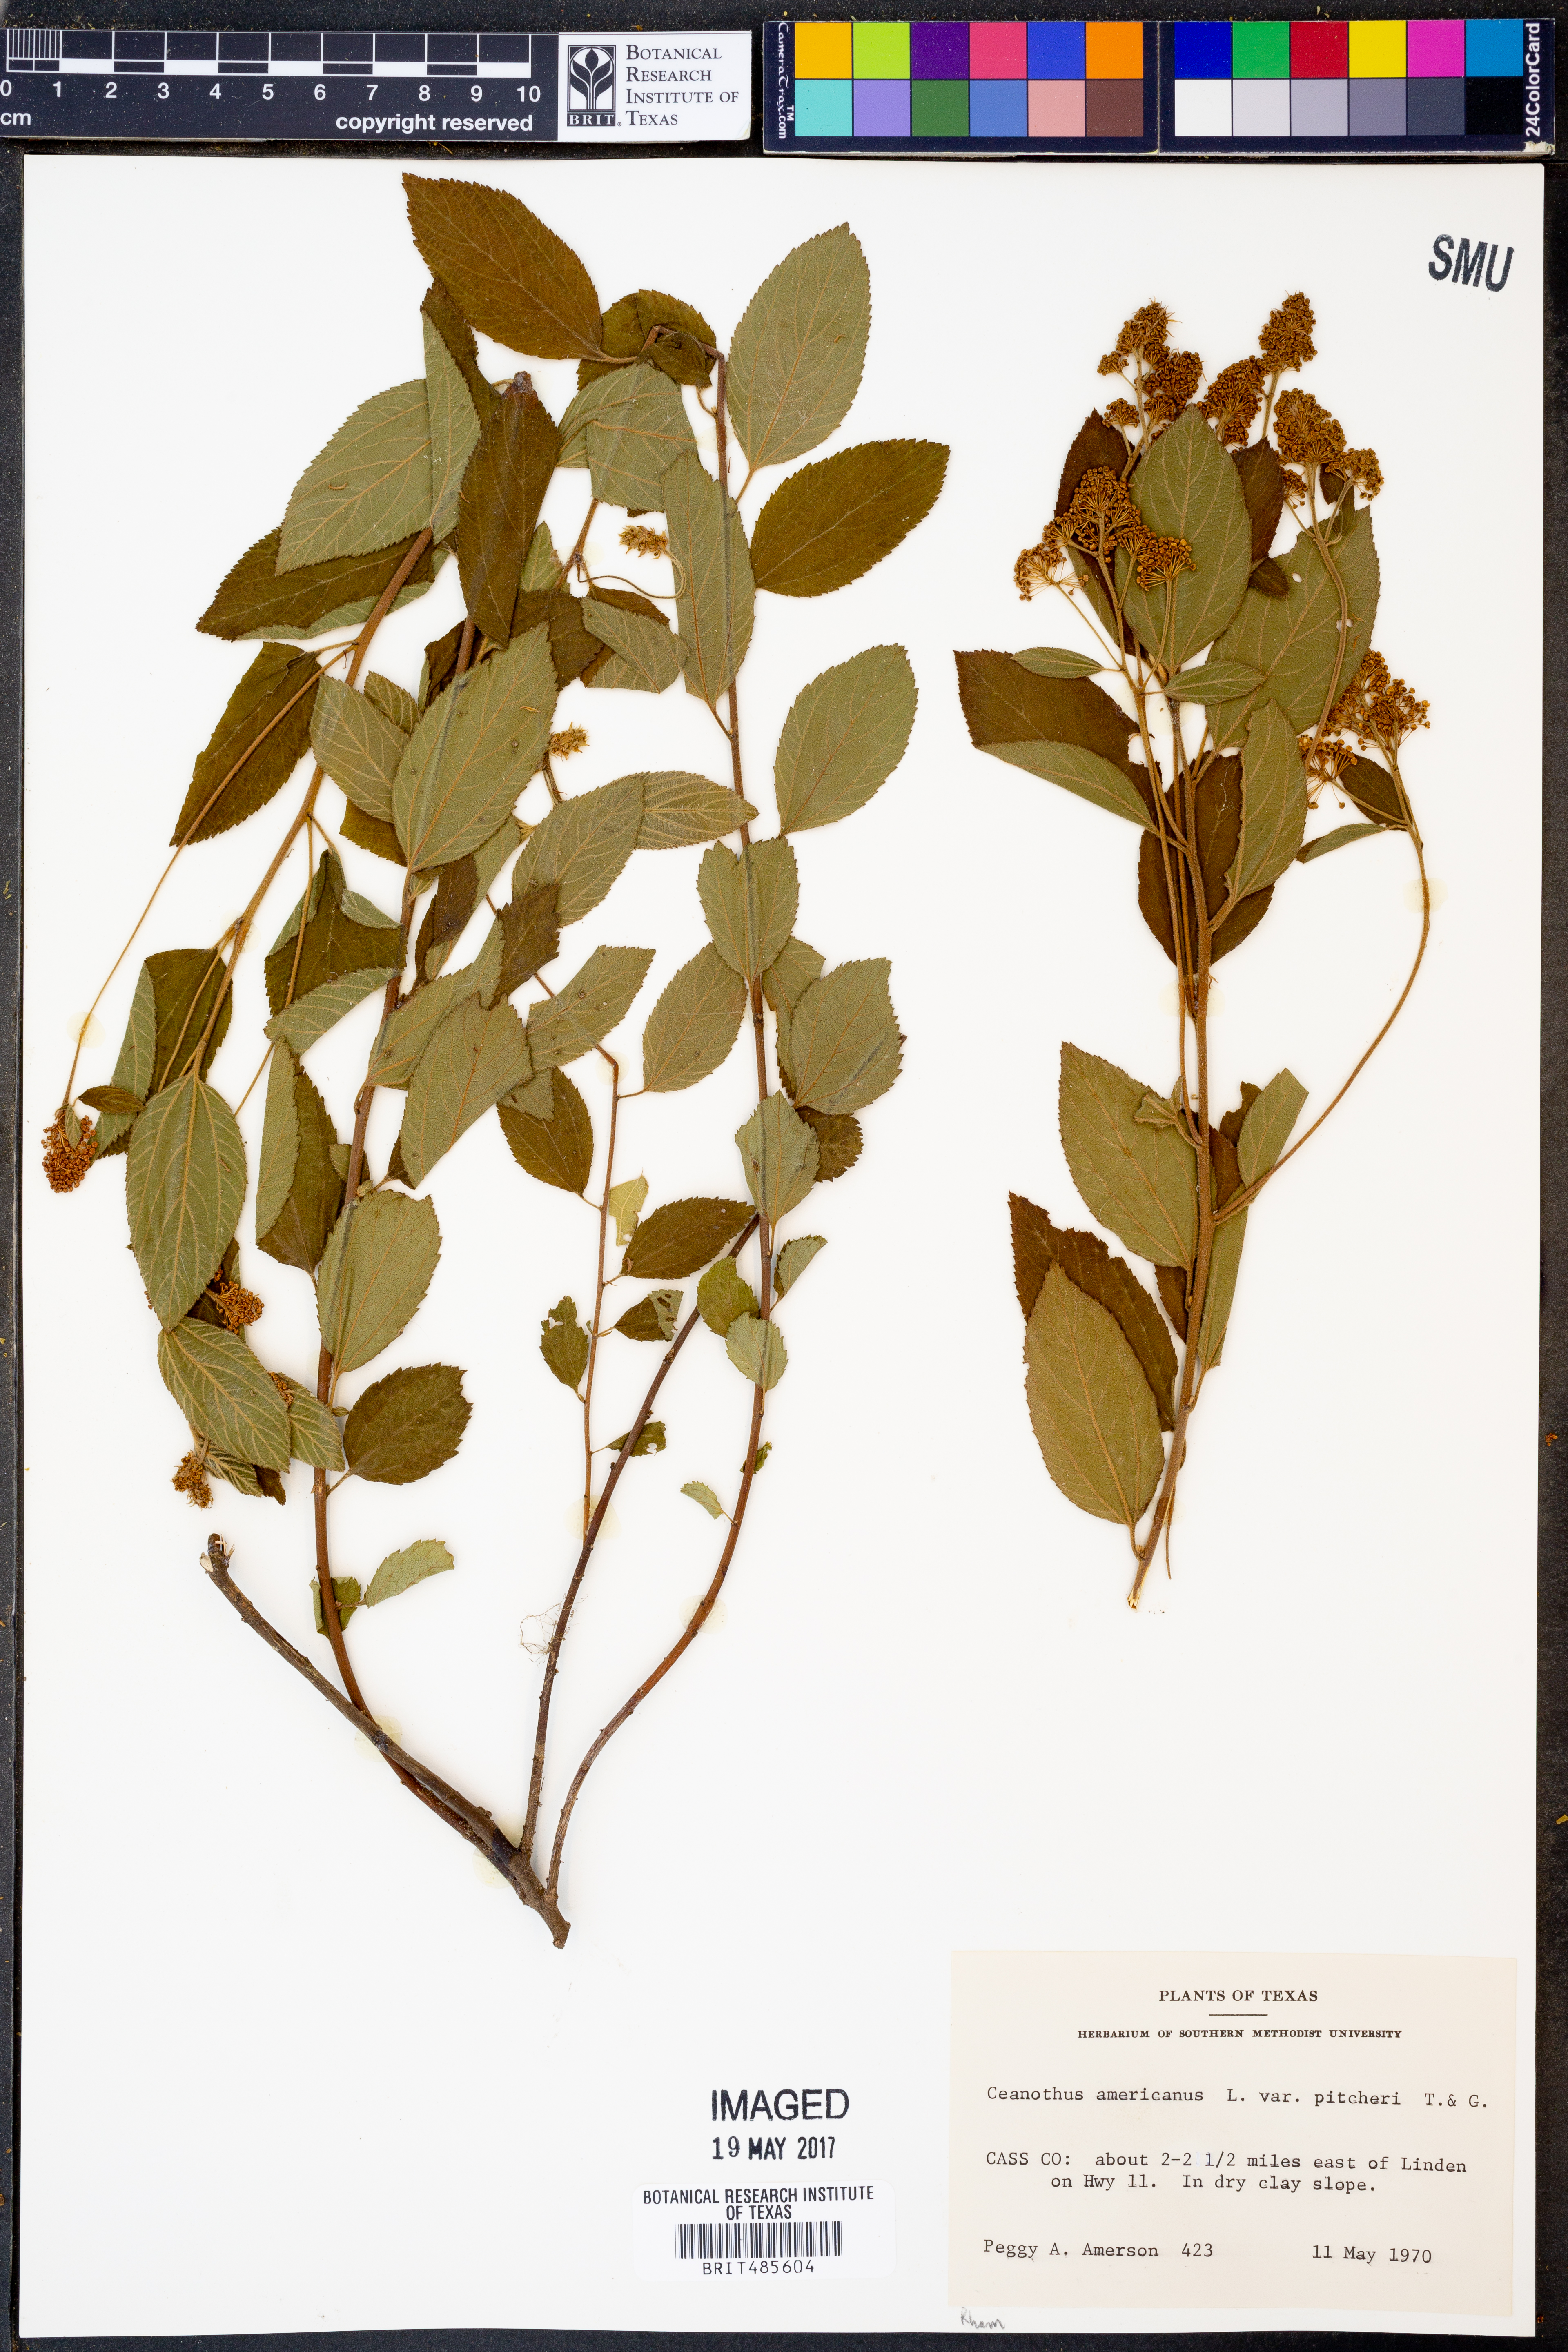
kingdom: Plantae
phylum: Tracheophyta
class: Magnoliopsida
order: Rosales
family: Rhamnaceae
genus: Ceanothus
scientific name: Ceanothus americanus
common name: Redroot
